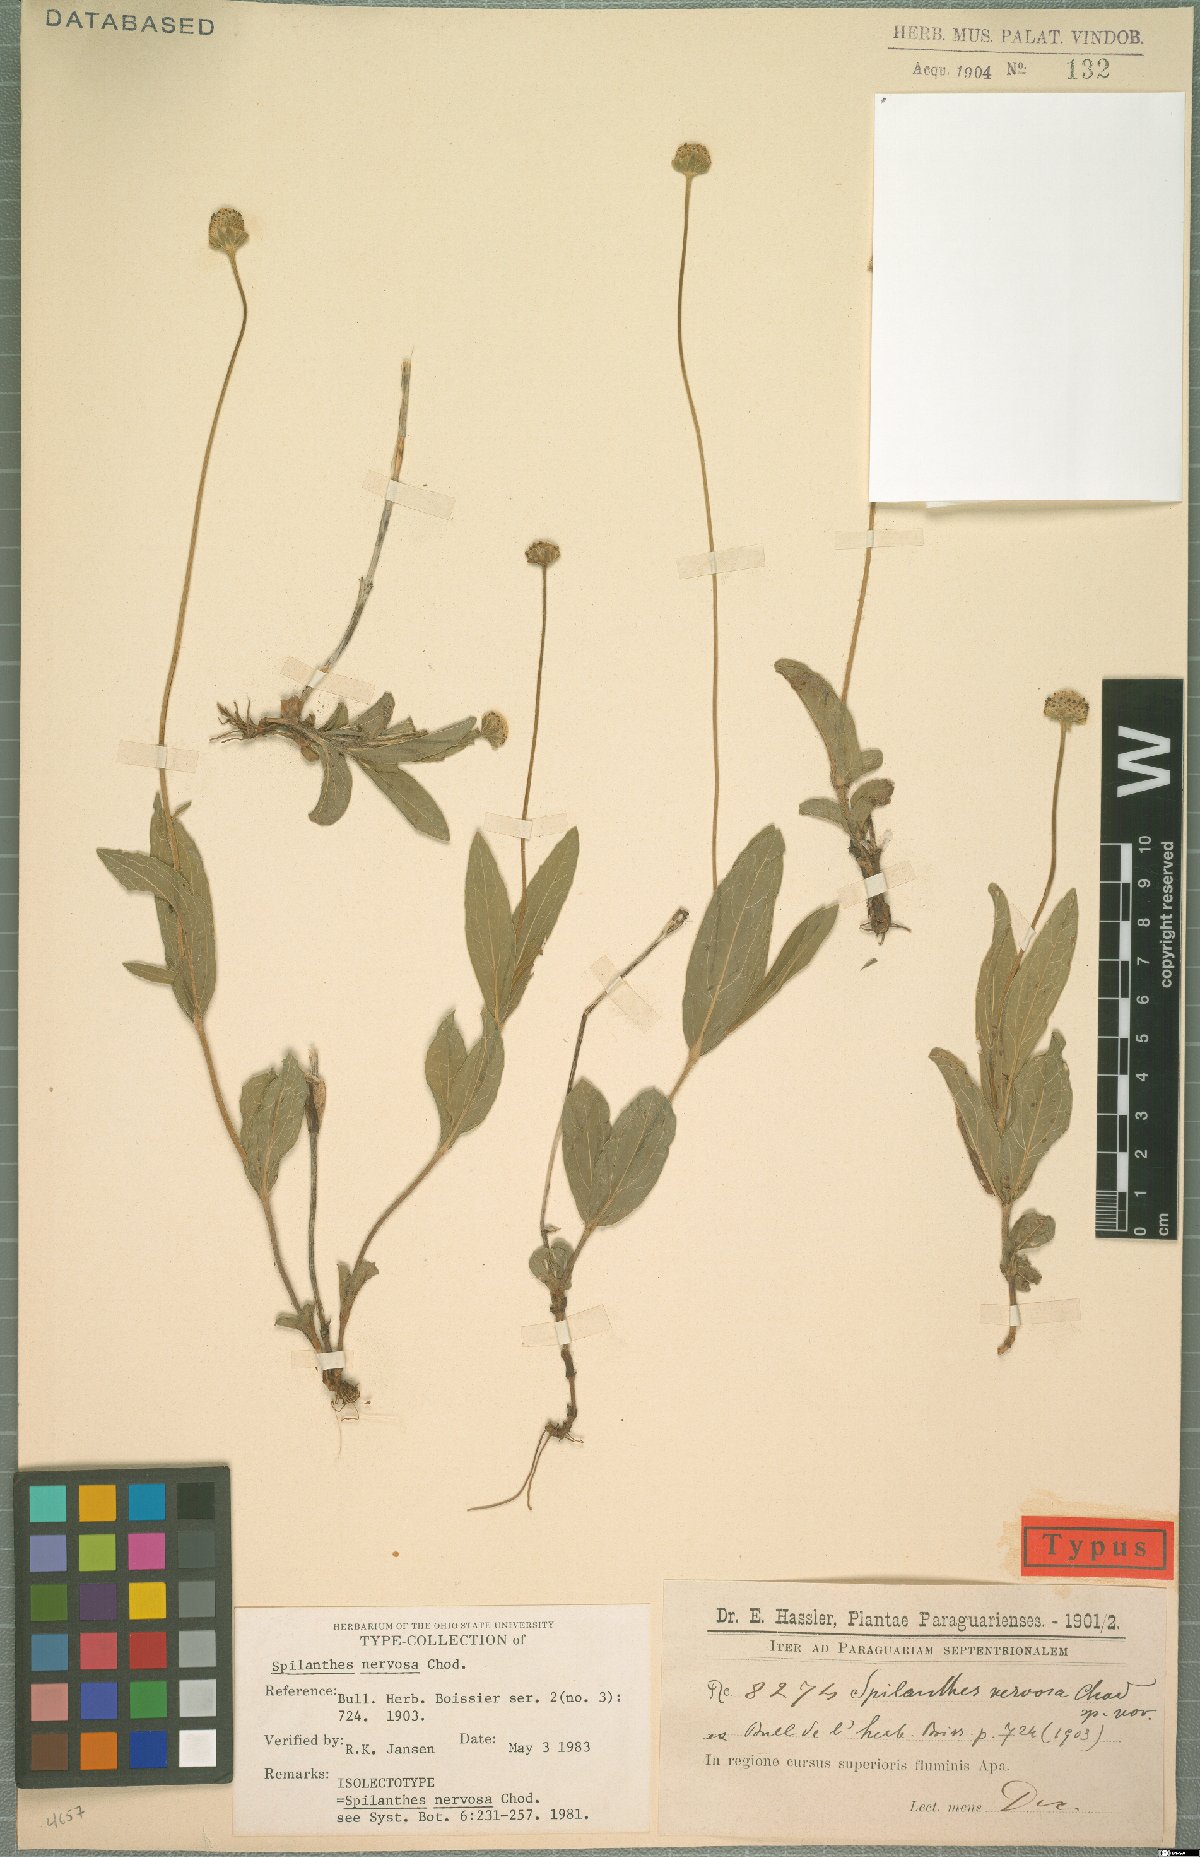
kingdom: Plantae
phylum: Tracheophyta
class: Magnoliopsida
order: Asterales
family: Asteraceae
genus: Spilanthes
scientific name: Spilanthes nervosa
